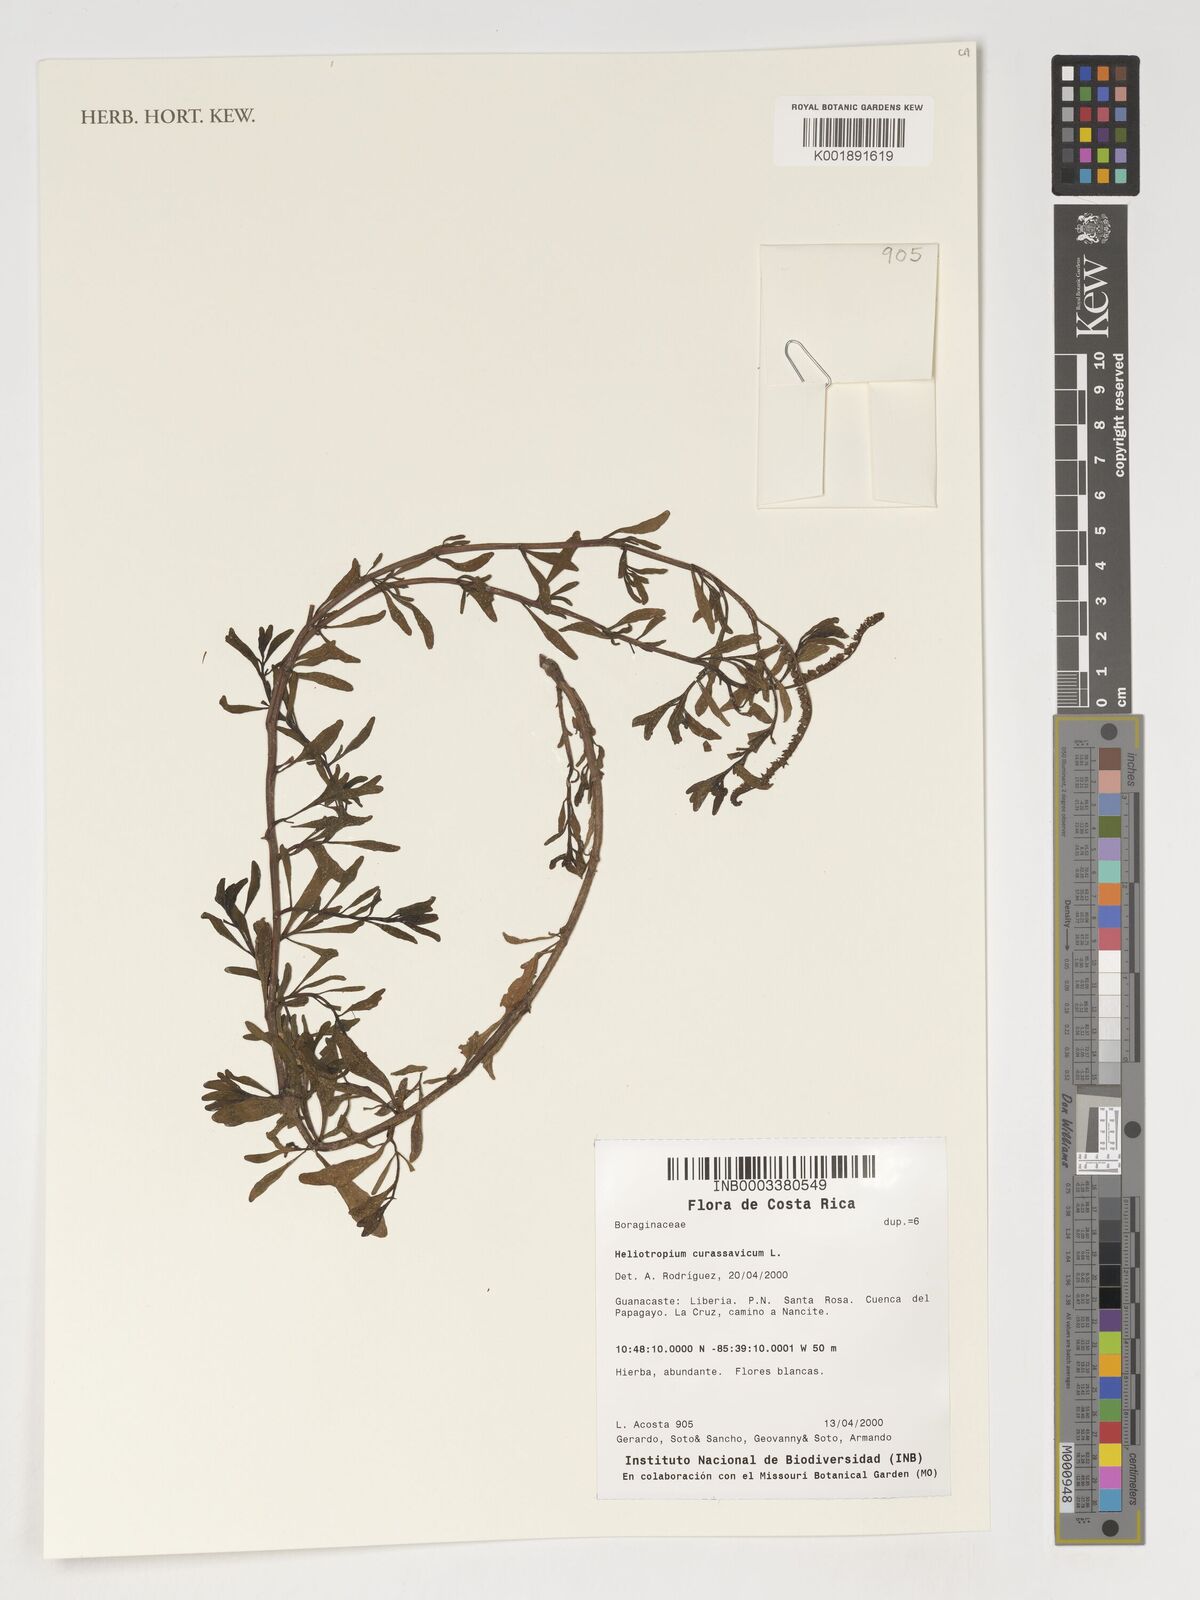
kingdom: Plantae
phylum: Tracheophyta
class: Magnoliopsida
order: Boraginales
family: Heliotropiaceae
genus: Heliotropium
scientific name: Heliotropium curassavicum
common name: Seaside heliotrope
